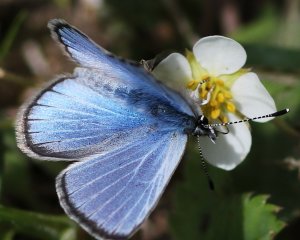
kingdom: Animalia
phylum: Arthropoda
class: Insecta
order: Lepidoptera
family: Lycaenidae
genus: Glaucopsyche
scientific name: Glaucopsyche lygdamus
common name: Silvery Blue
